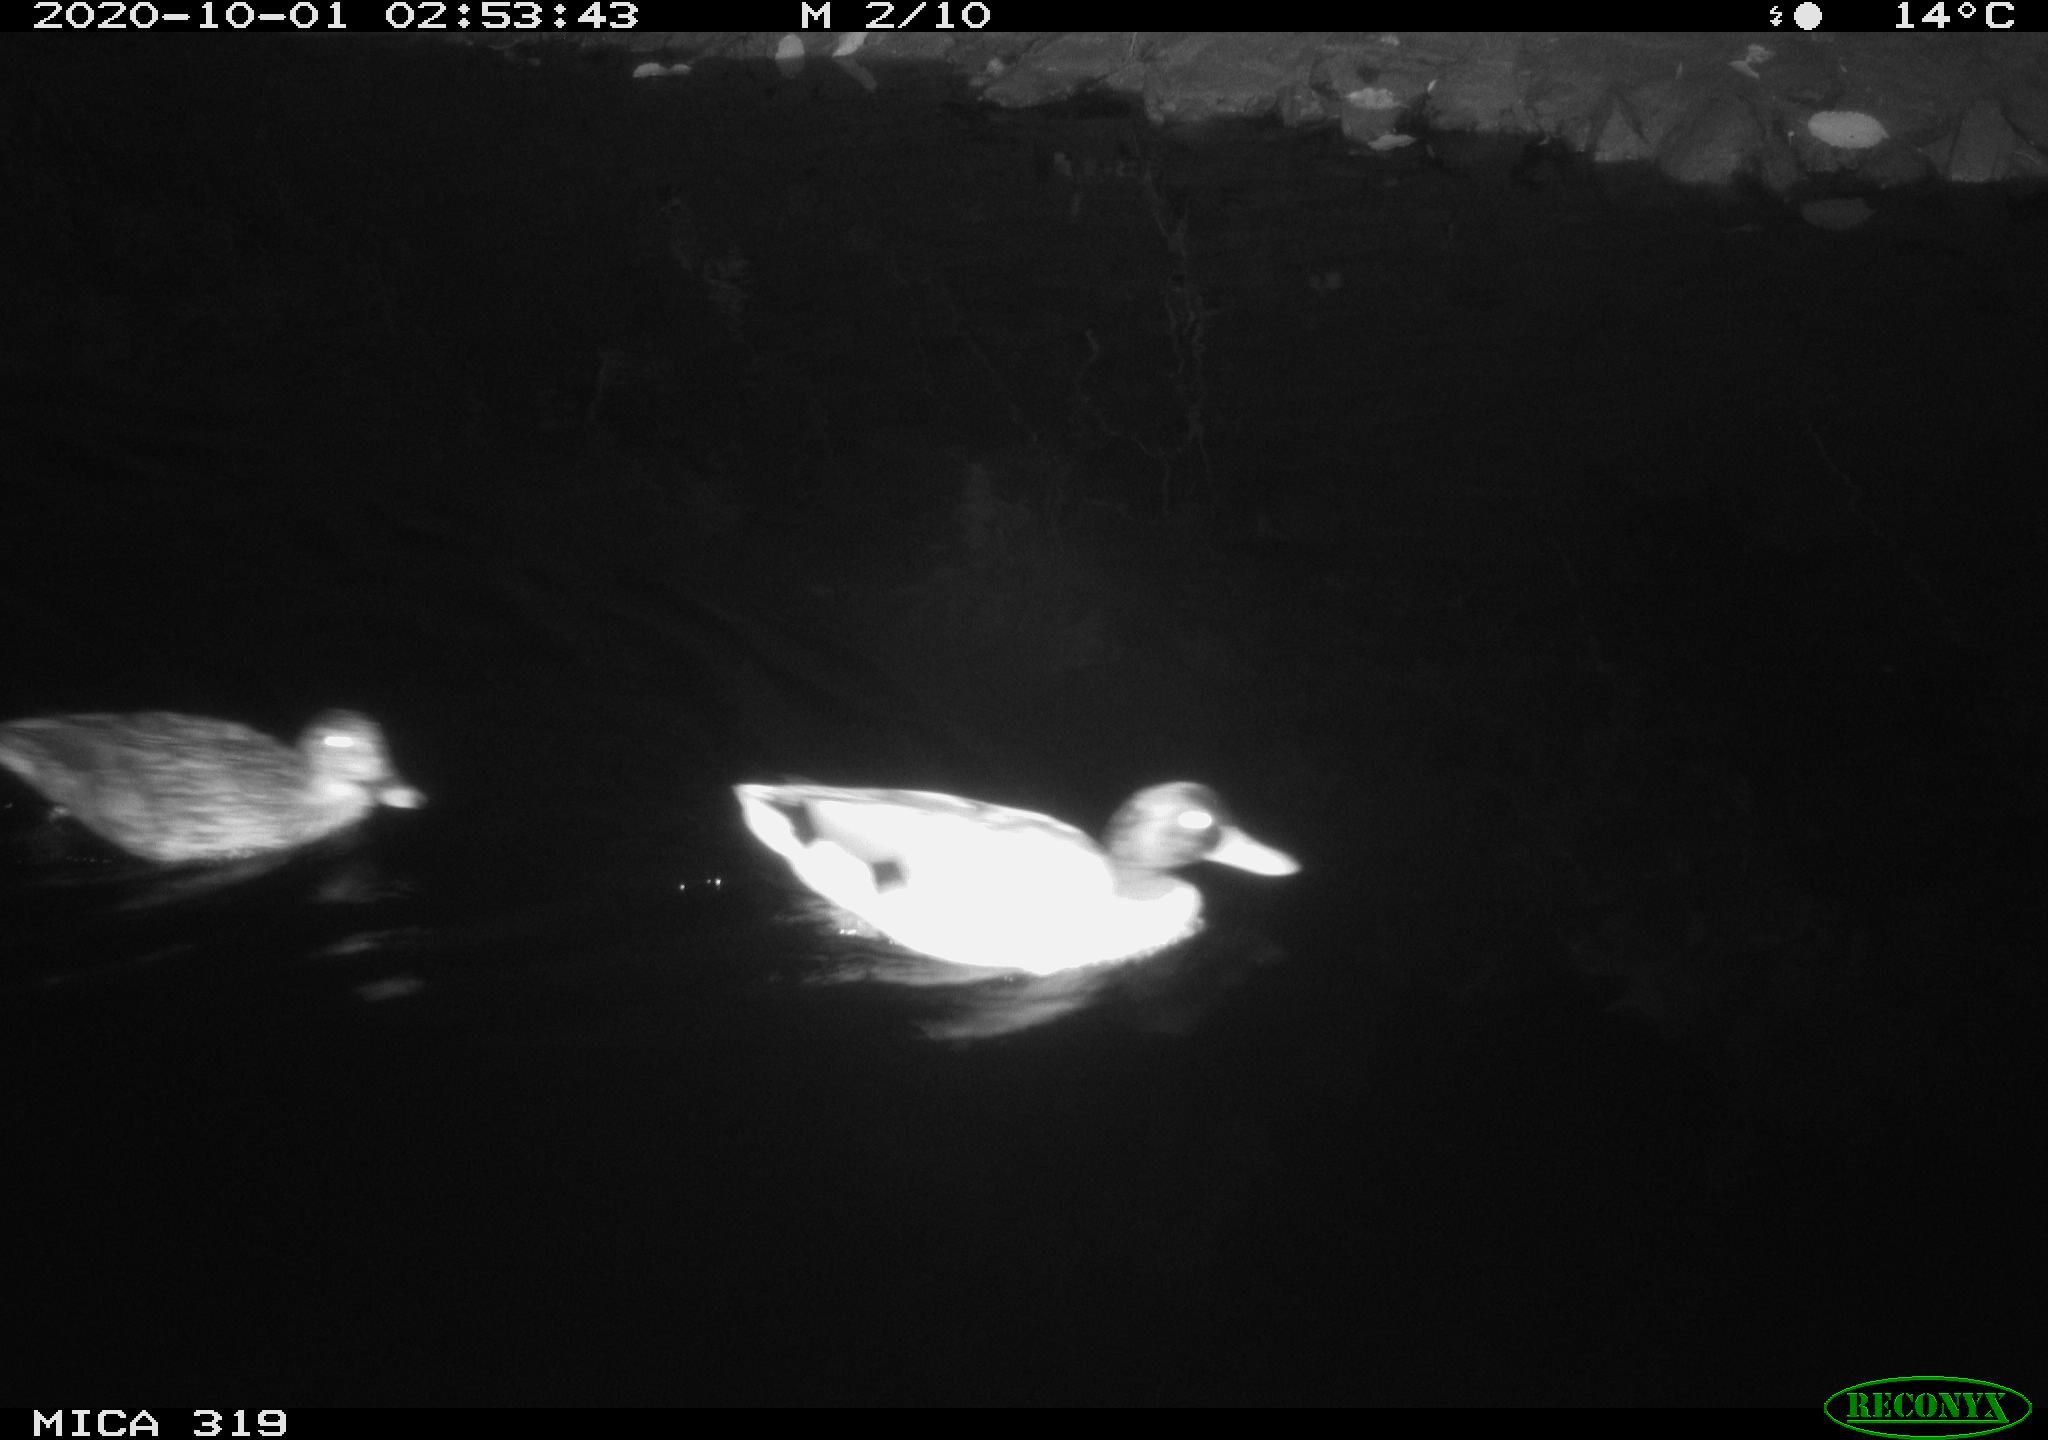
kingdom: Animalia
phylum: Chordata
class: Aves
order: Anseriformes
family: Anatidae
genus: Anas
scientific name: Anas platyrhynchos
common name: Mallard
